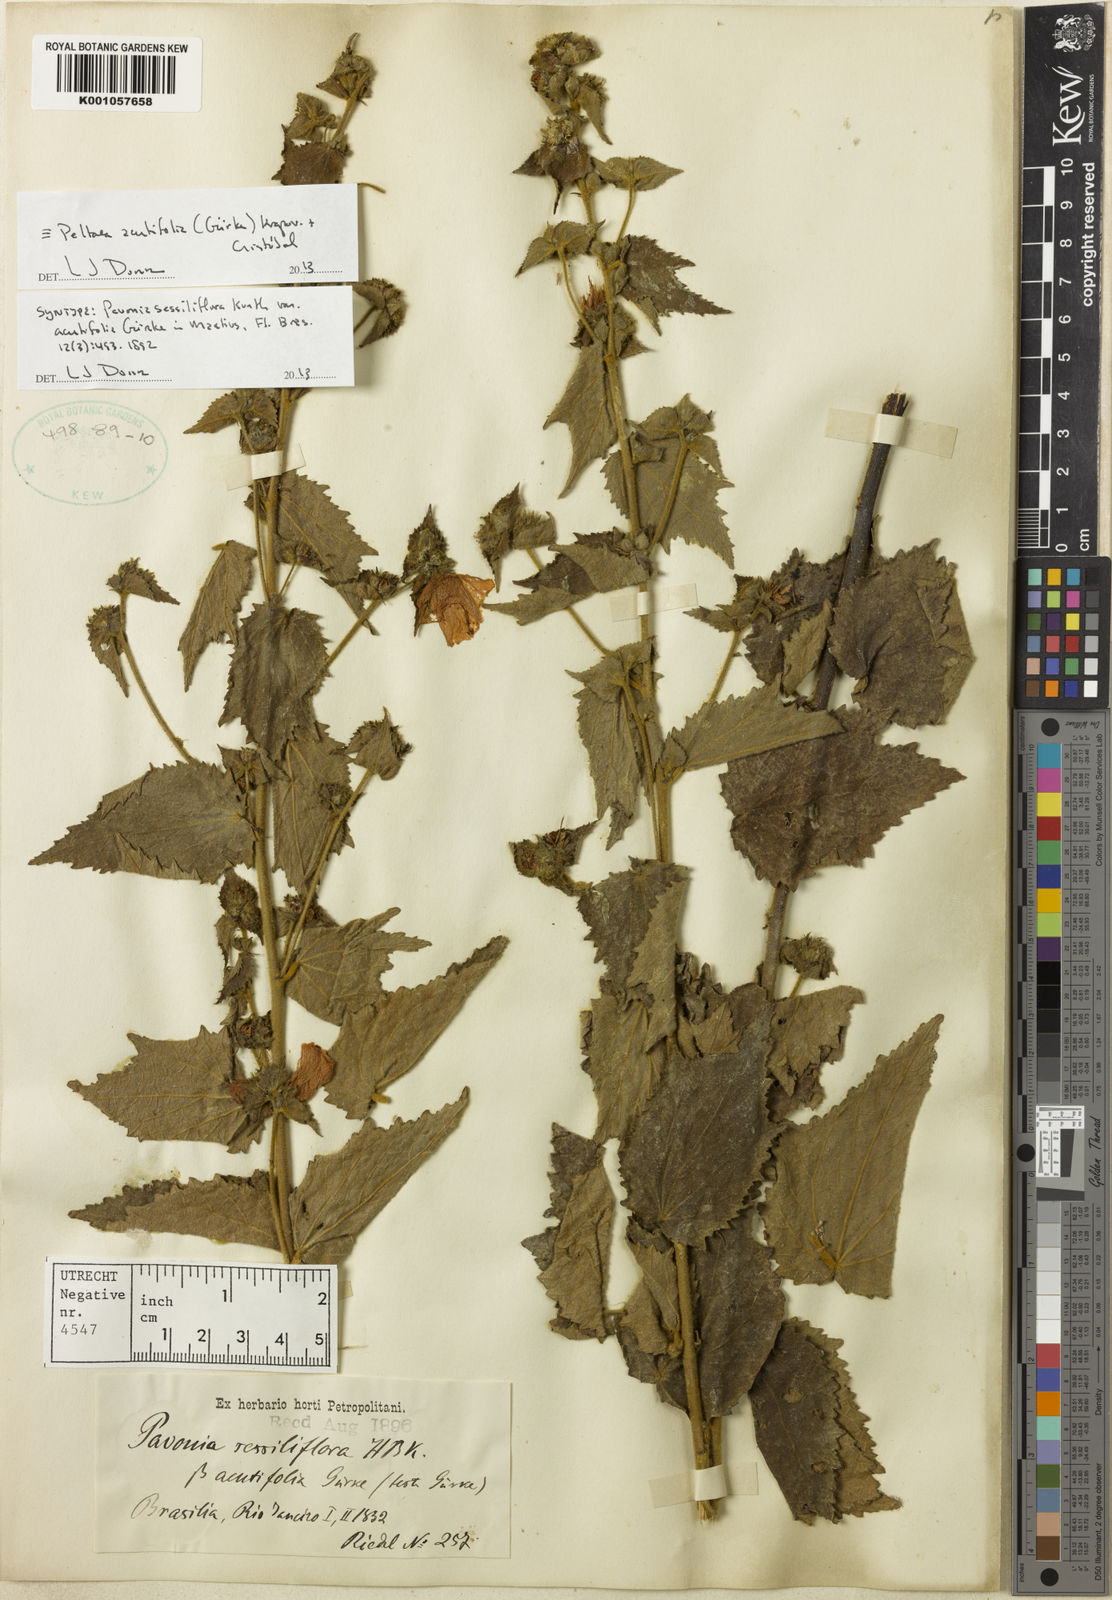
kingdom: Plantae
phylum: Tracheophyta
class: Magnoliopsida
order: Malvales
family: Malvaceae
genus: Peltaea
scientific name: Peltaea
